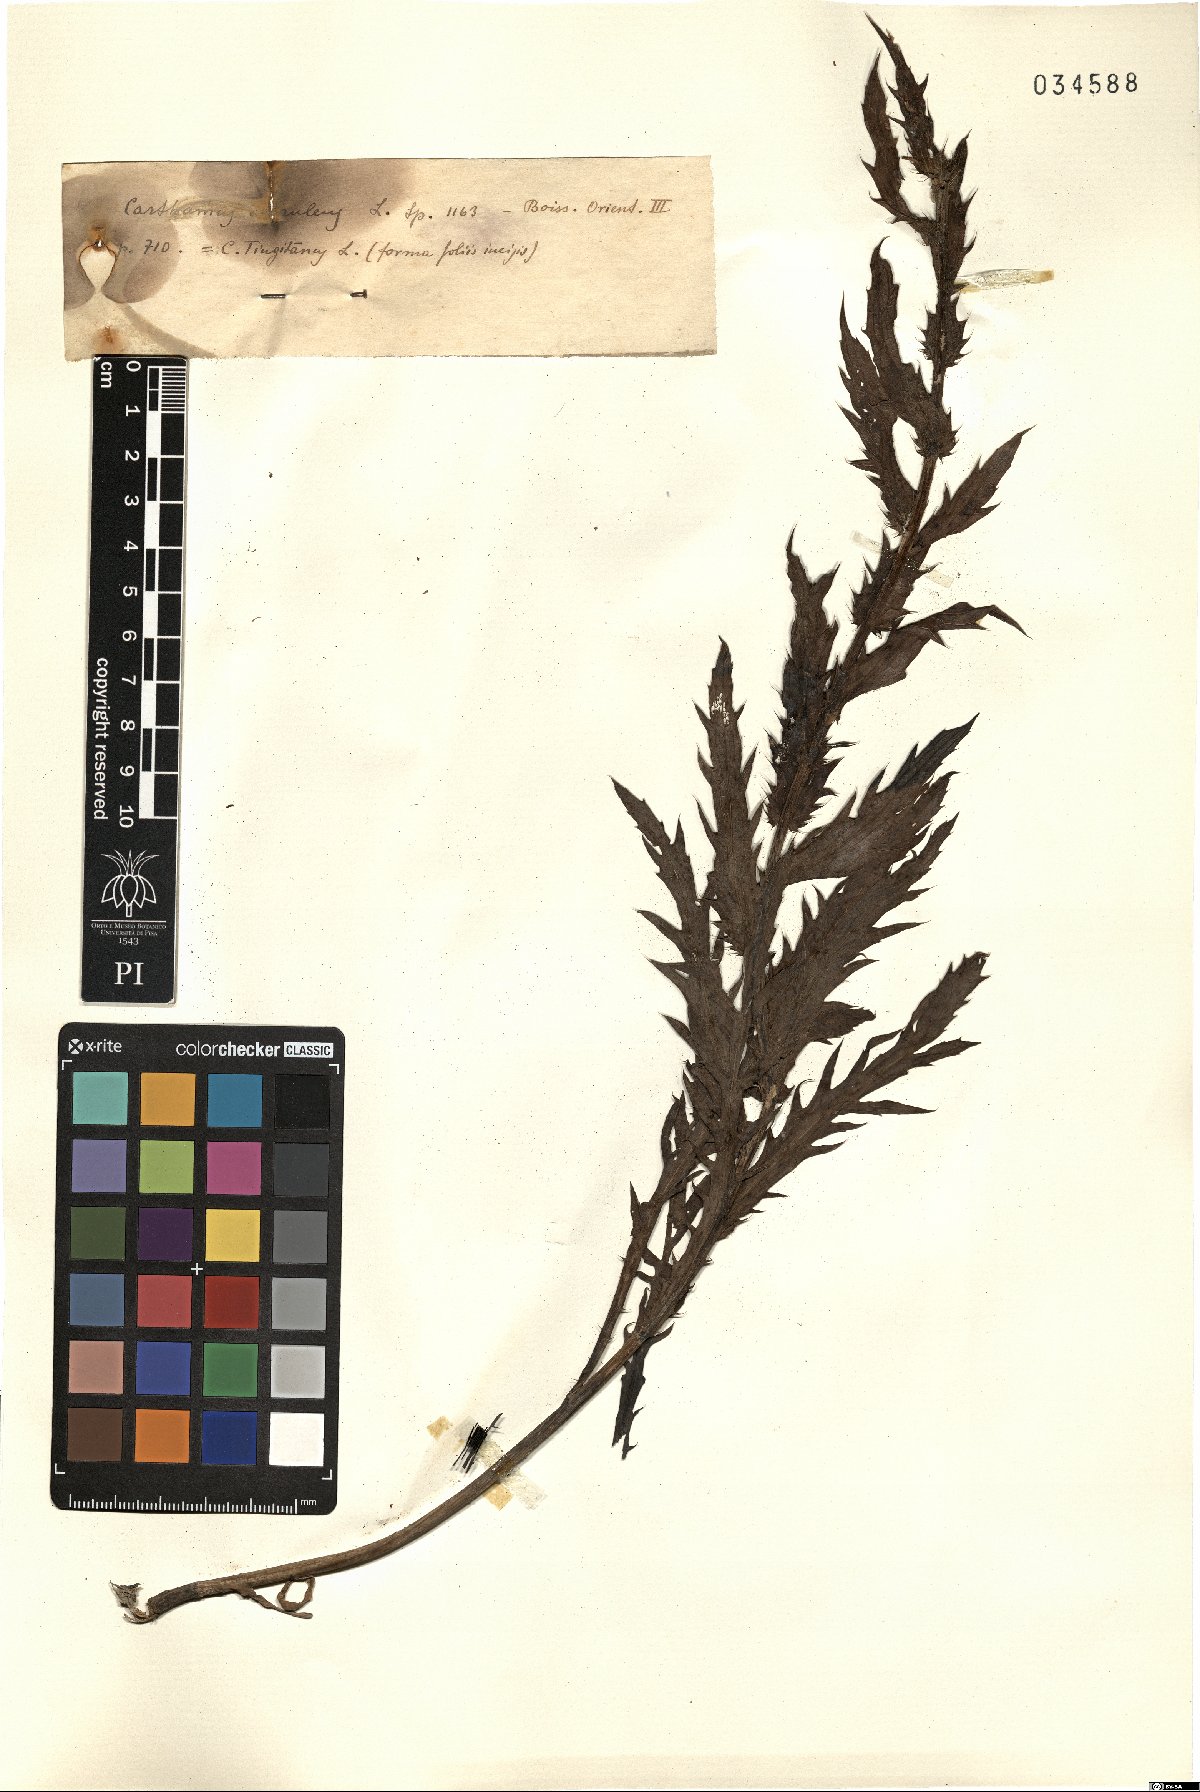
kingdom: Plantae
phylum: Tracheophyta
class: Magnoliopsida
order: Asterales
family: Asteraceae
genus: Carduncellus
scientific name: Carduncellus caeruleus
